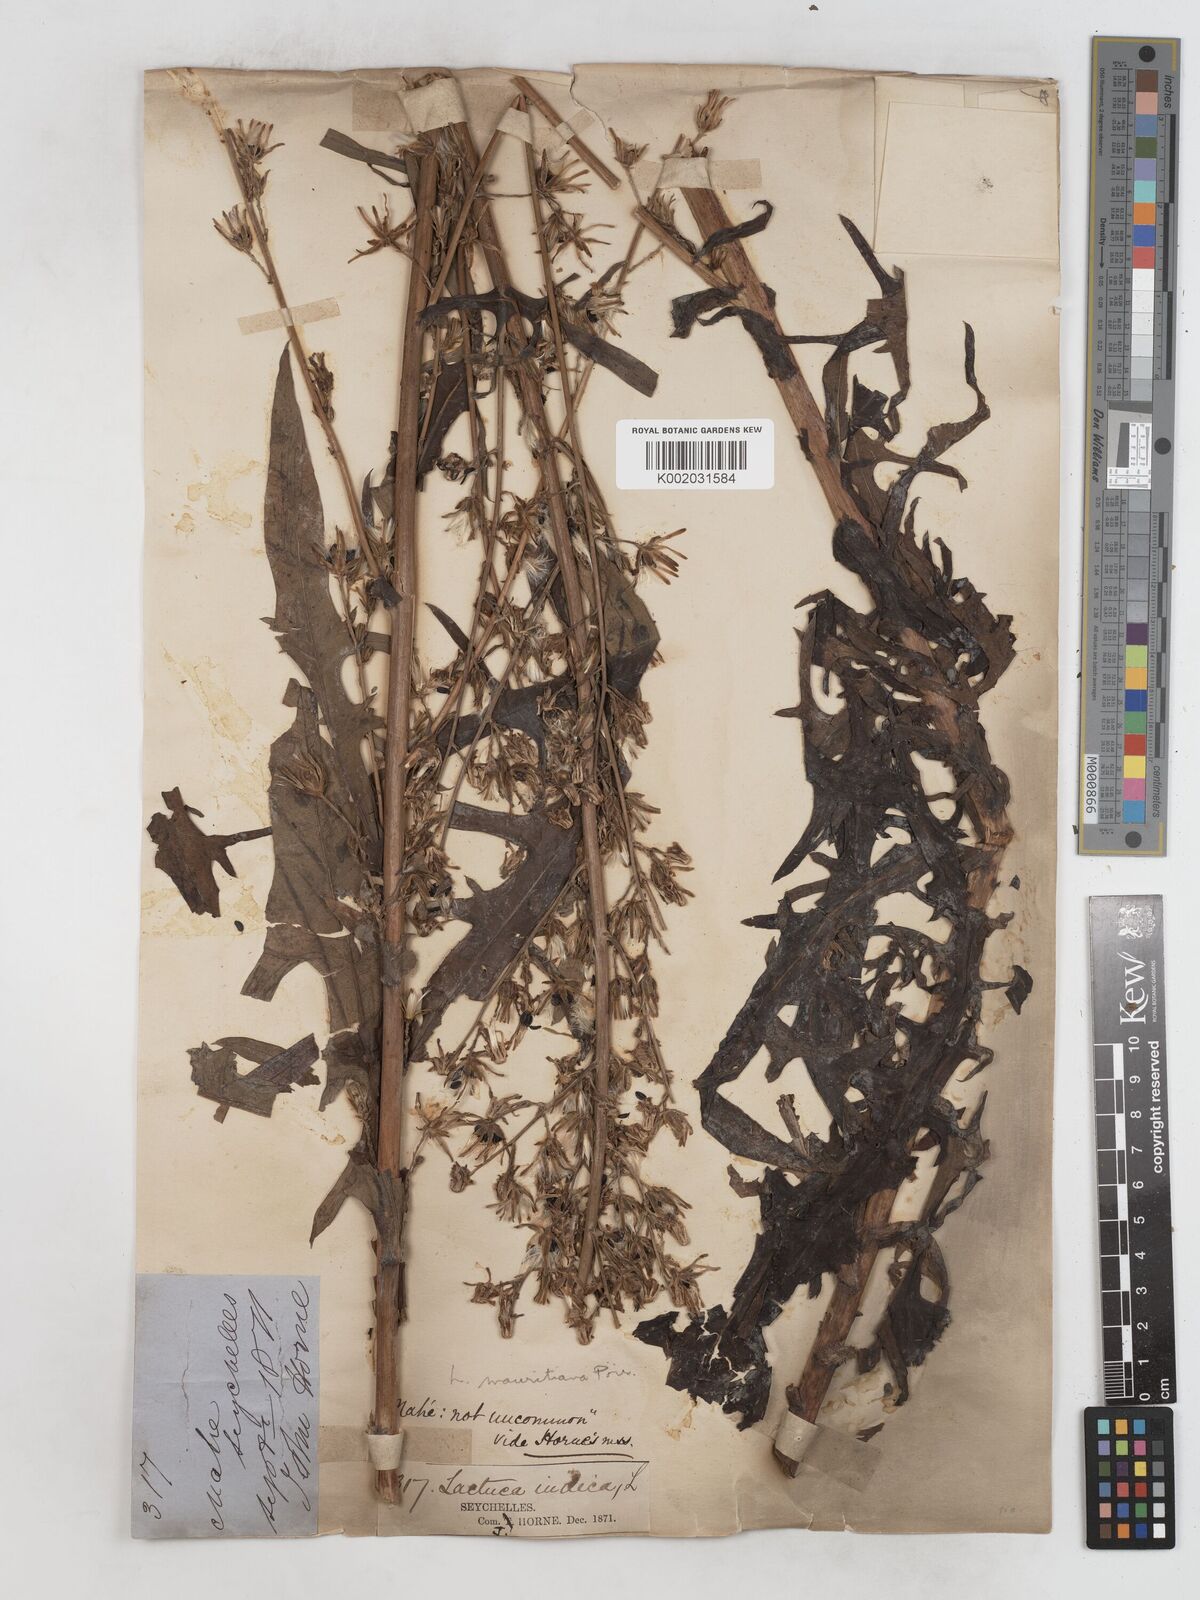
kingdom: Plantae
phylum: Tracheophyta
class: Magnoliopsida
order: Asterales
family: Asteraceae
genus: Lactuca
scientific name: Lactuca indica
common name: Wild lettuce
